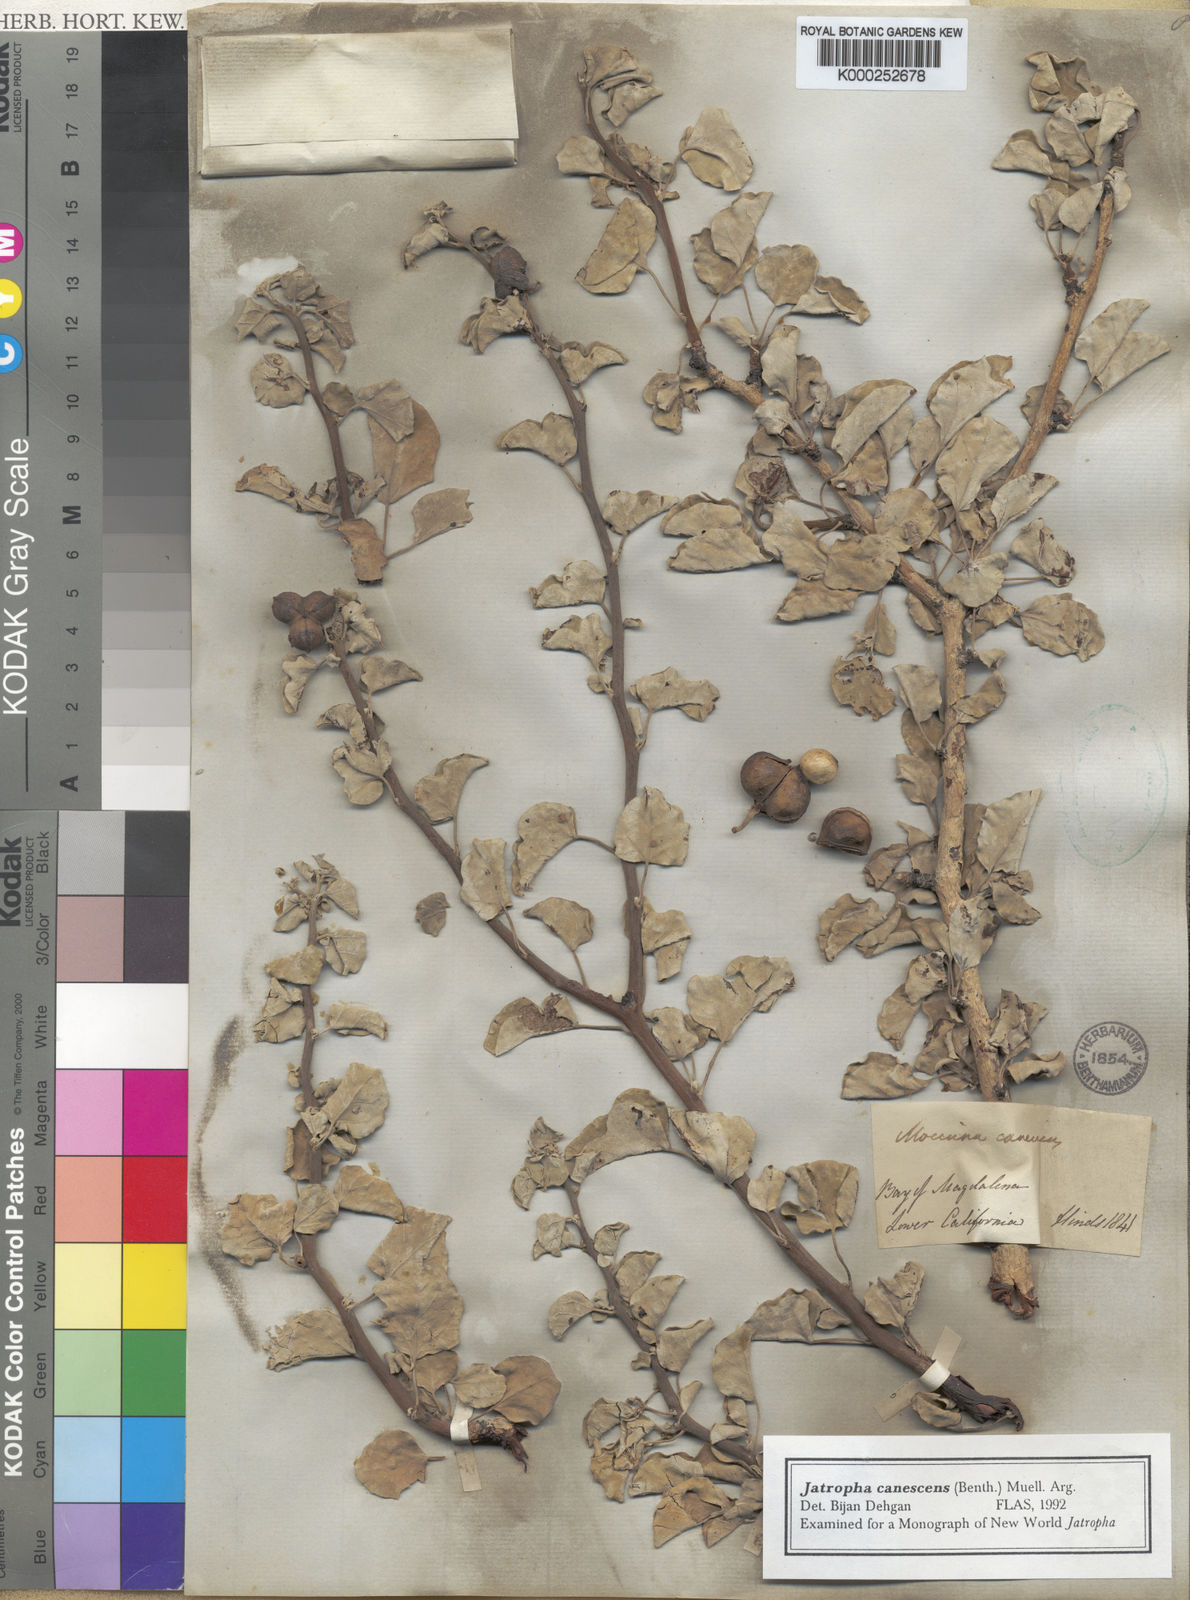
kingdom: Plantae
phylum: Tracheophyta
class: Magnoliopsida
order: Malpighiales
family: Euphorbiaceae
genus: Jatropha
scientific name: Jatropha
